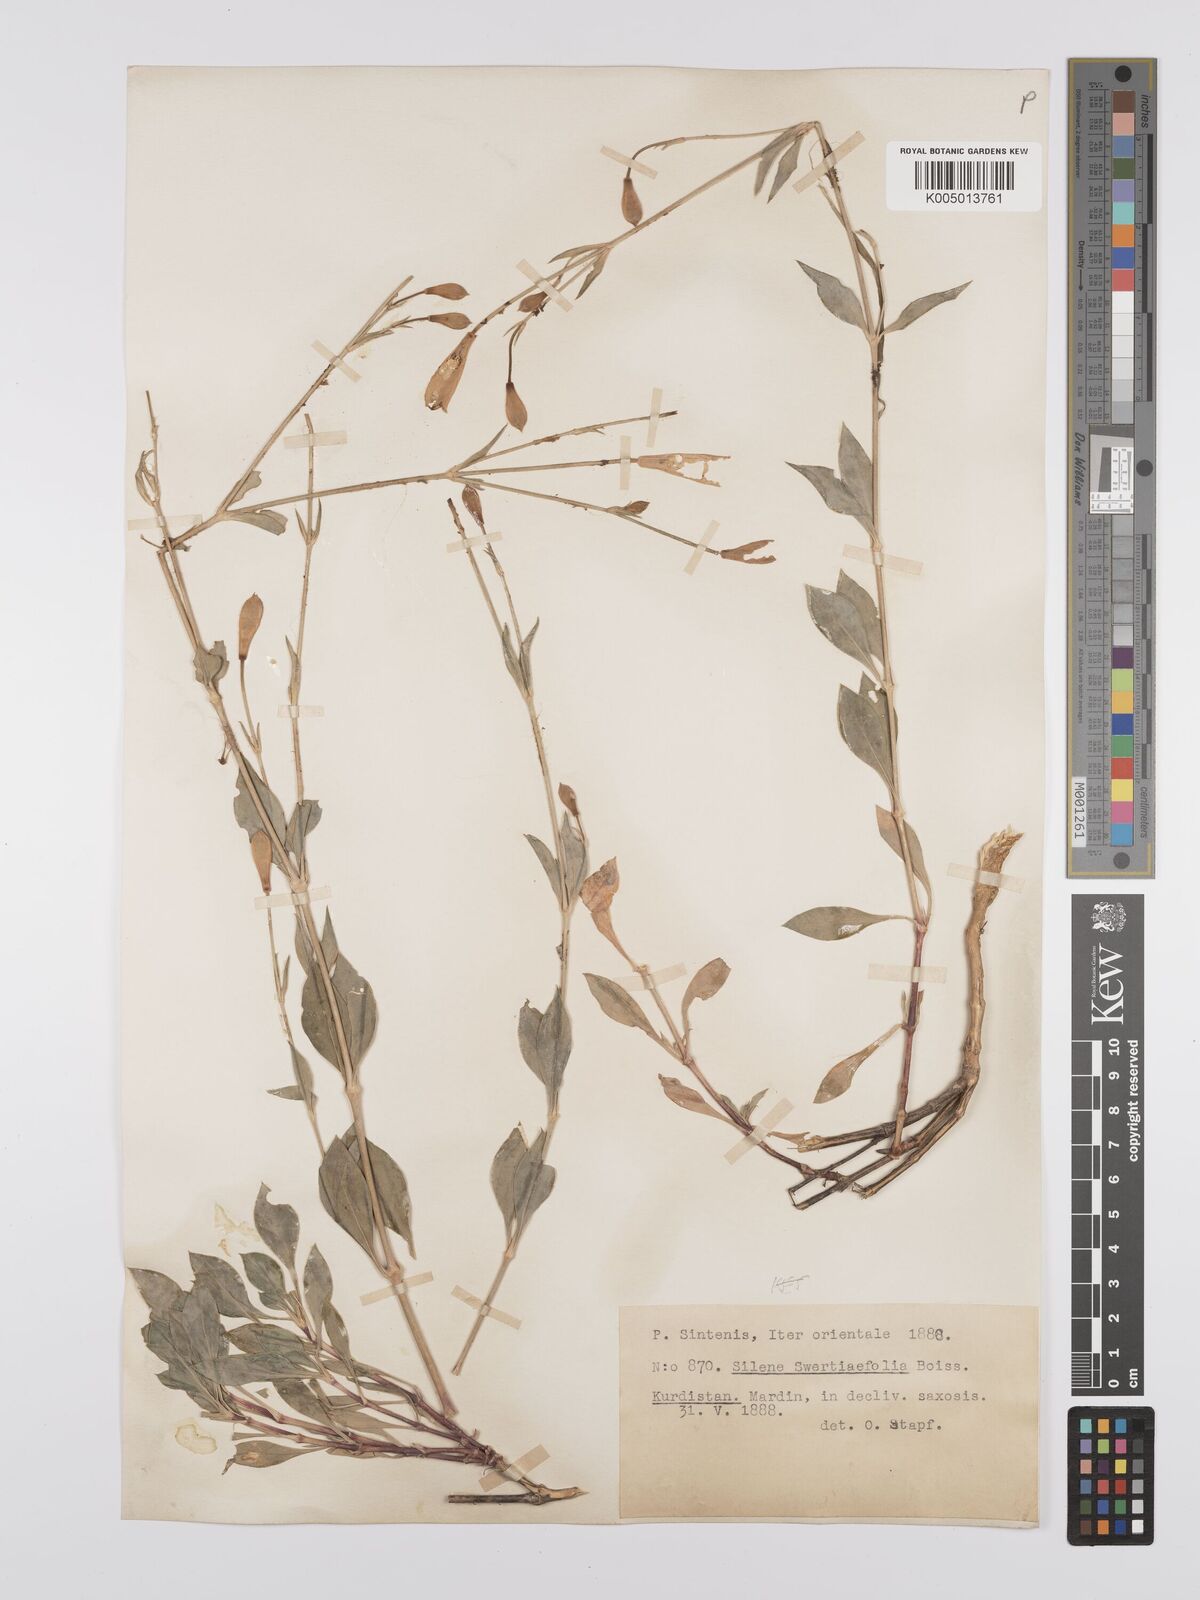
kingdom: Plantae
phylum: Tracheophyta
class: Magnoliopsida
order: Caryophyllales
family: Caryophyllaceae
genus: Silene
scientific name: Silene swertiifolia
